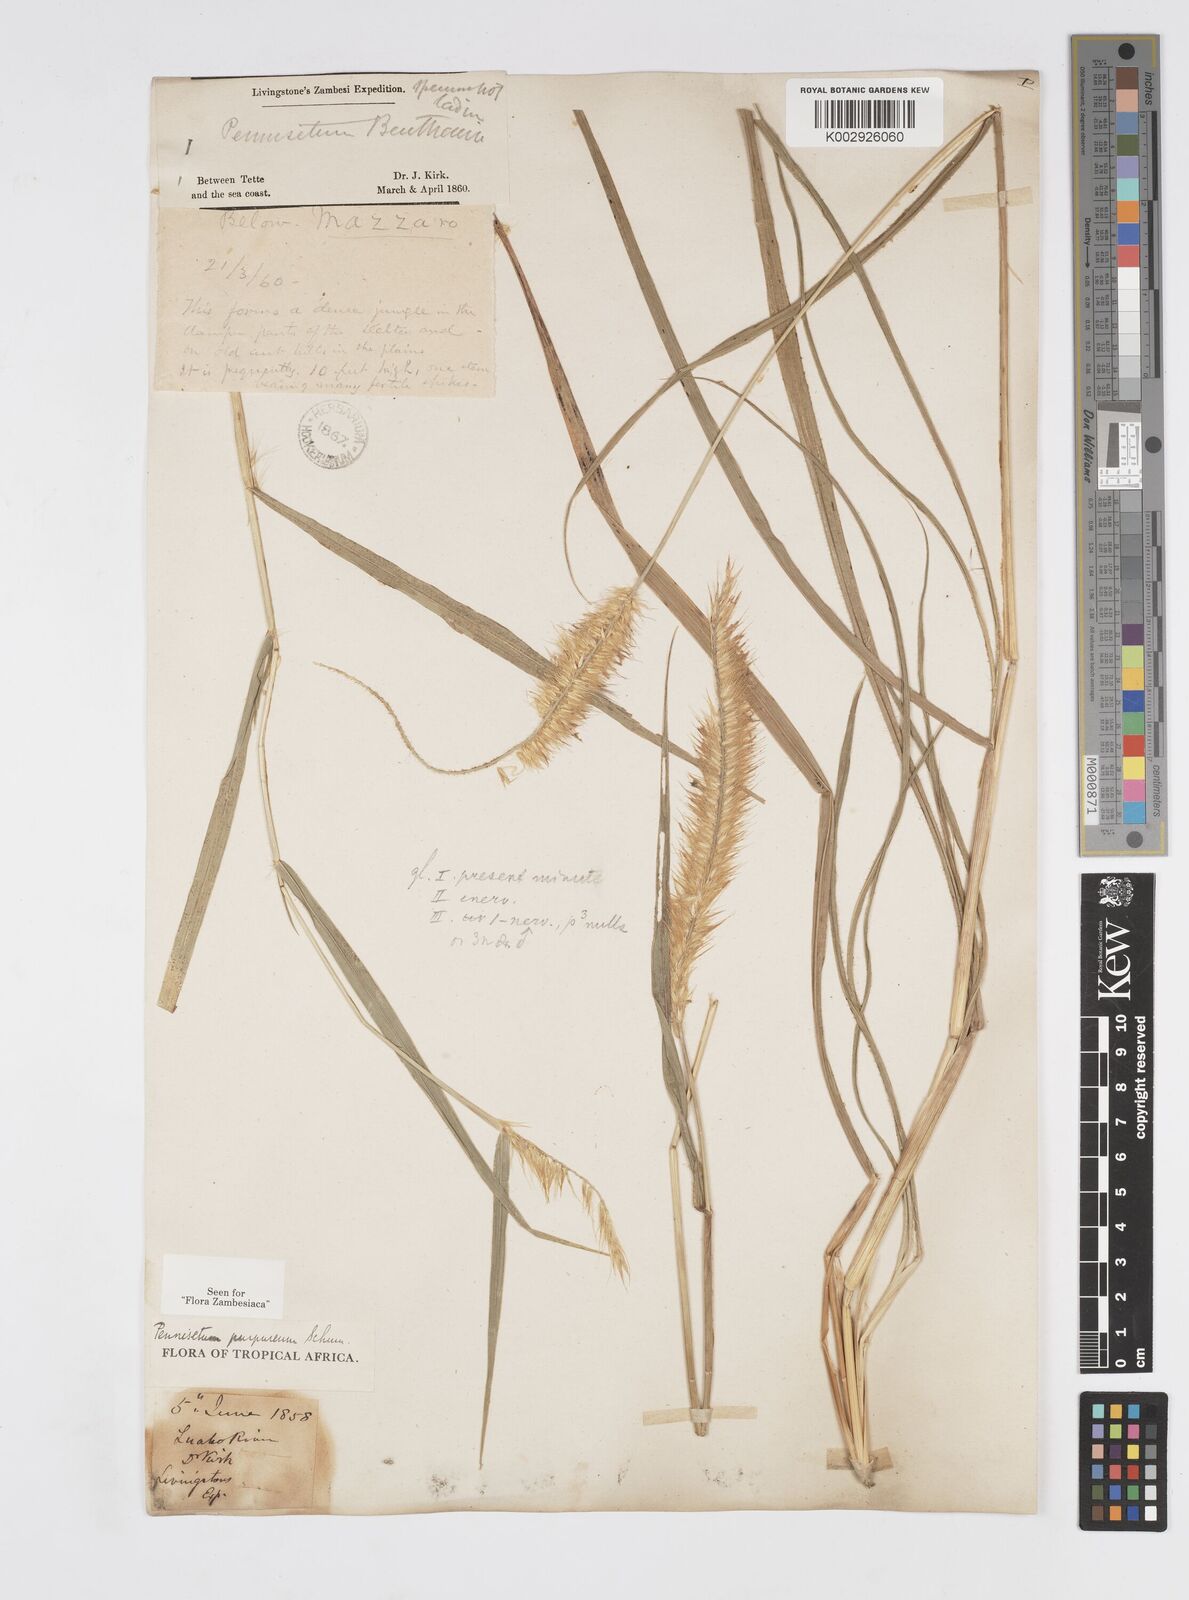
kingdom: Plantae
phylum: Tracheophyta
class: Liliopsida
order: Poales
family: Poaceae
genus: Cenchrus
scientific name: Cenchrus purpureus
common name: Elephant grass
